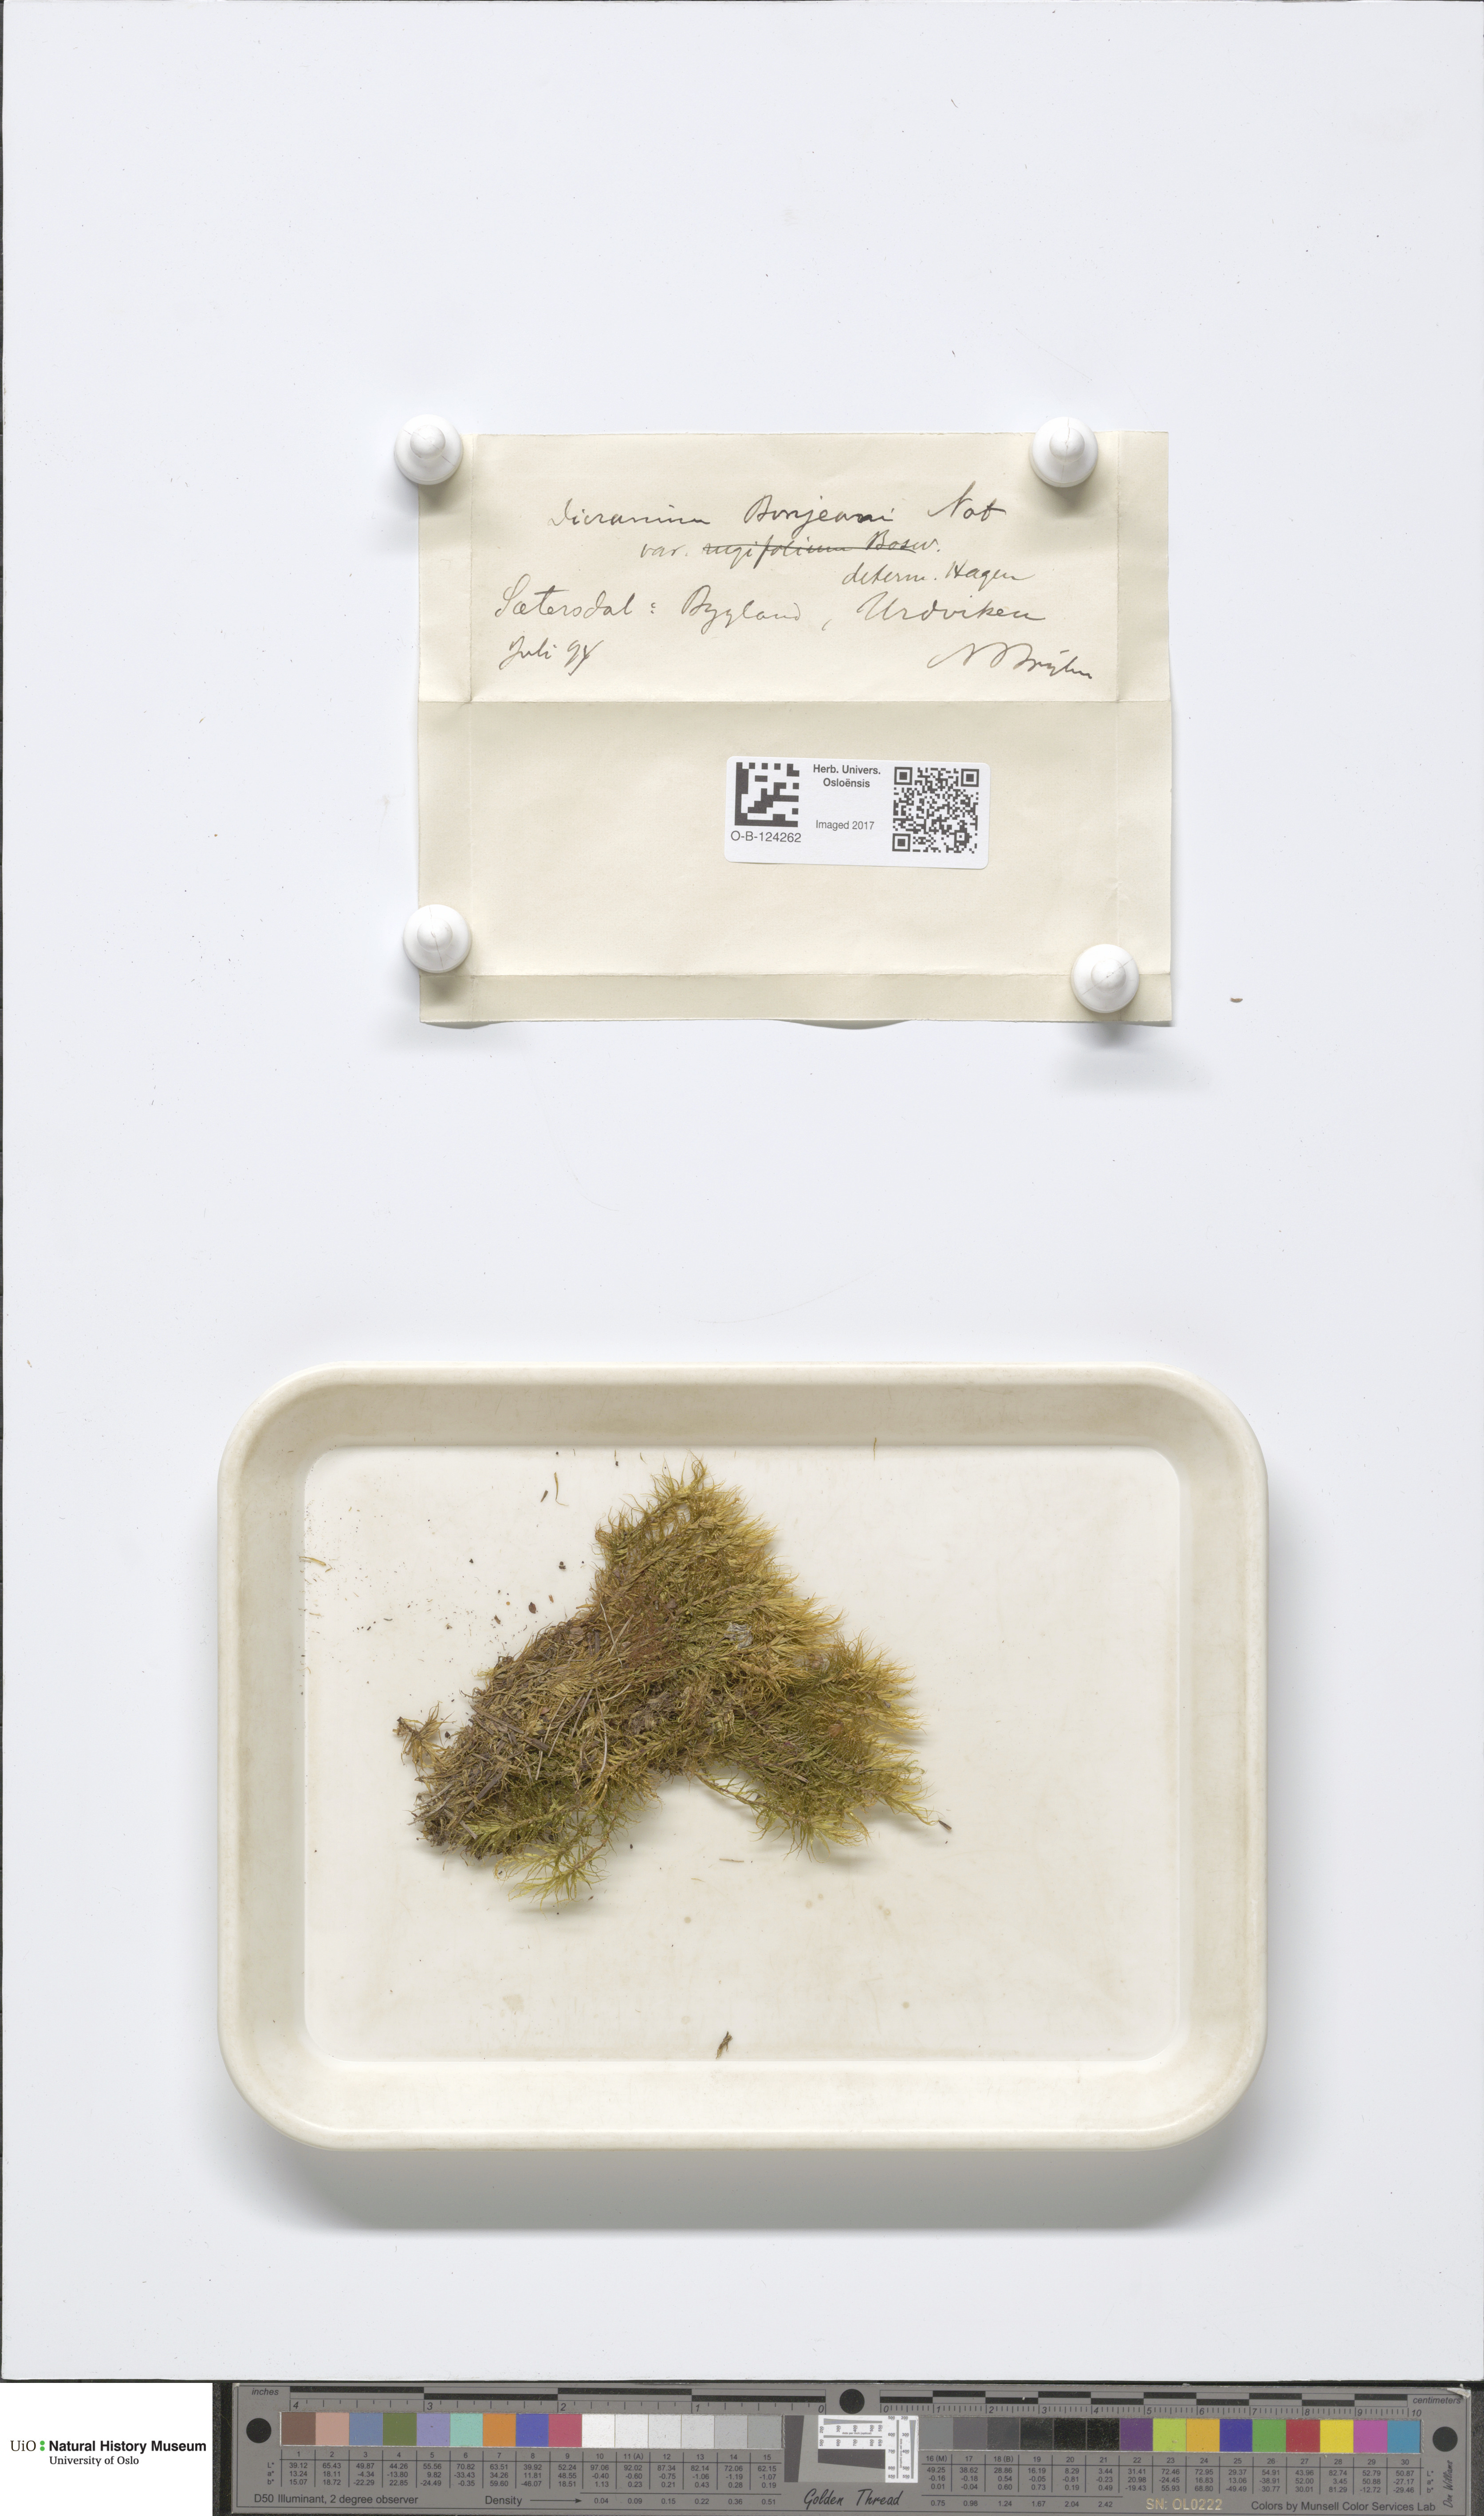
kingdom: Plantae
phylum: Bryophyta
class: Bryopsida
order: Dicranales
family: Dicranaceae
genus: Dicranum
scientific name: Dicranum bonjeanii
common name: Bonjean's broom moss
